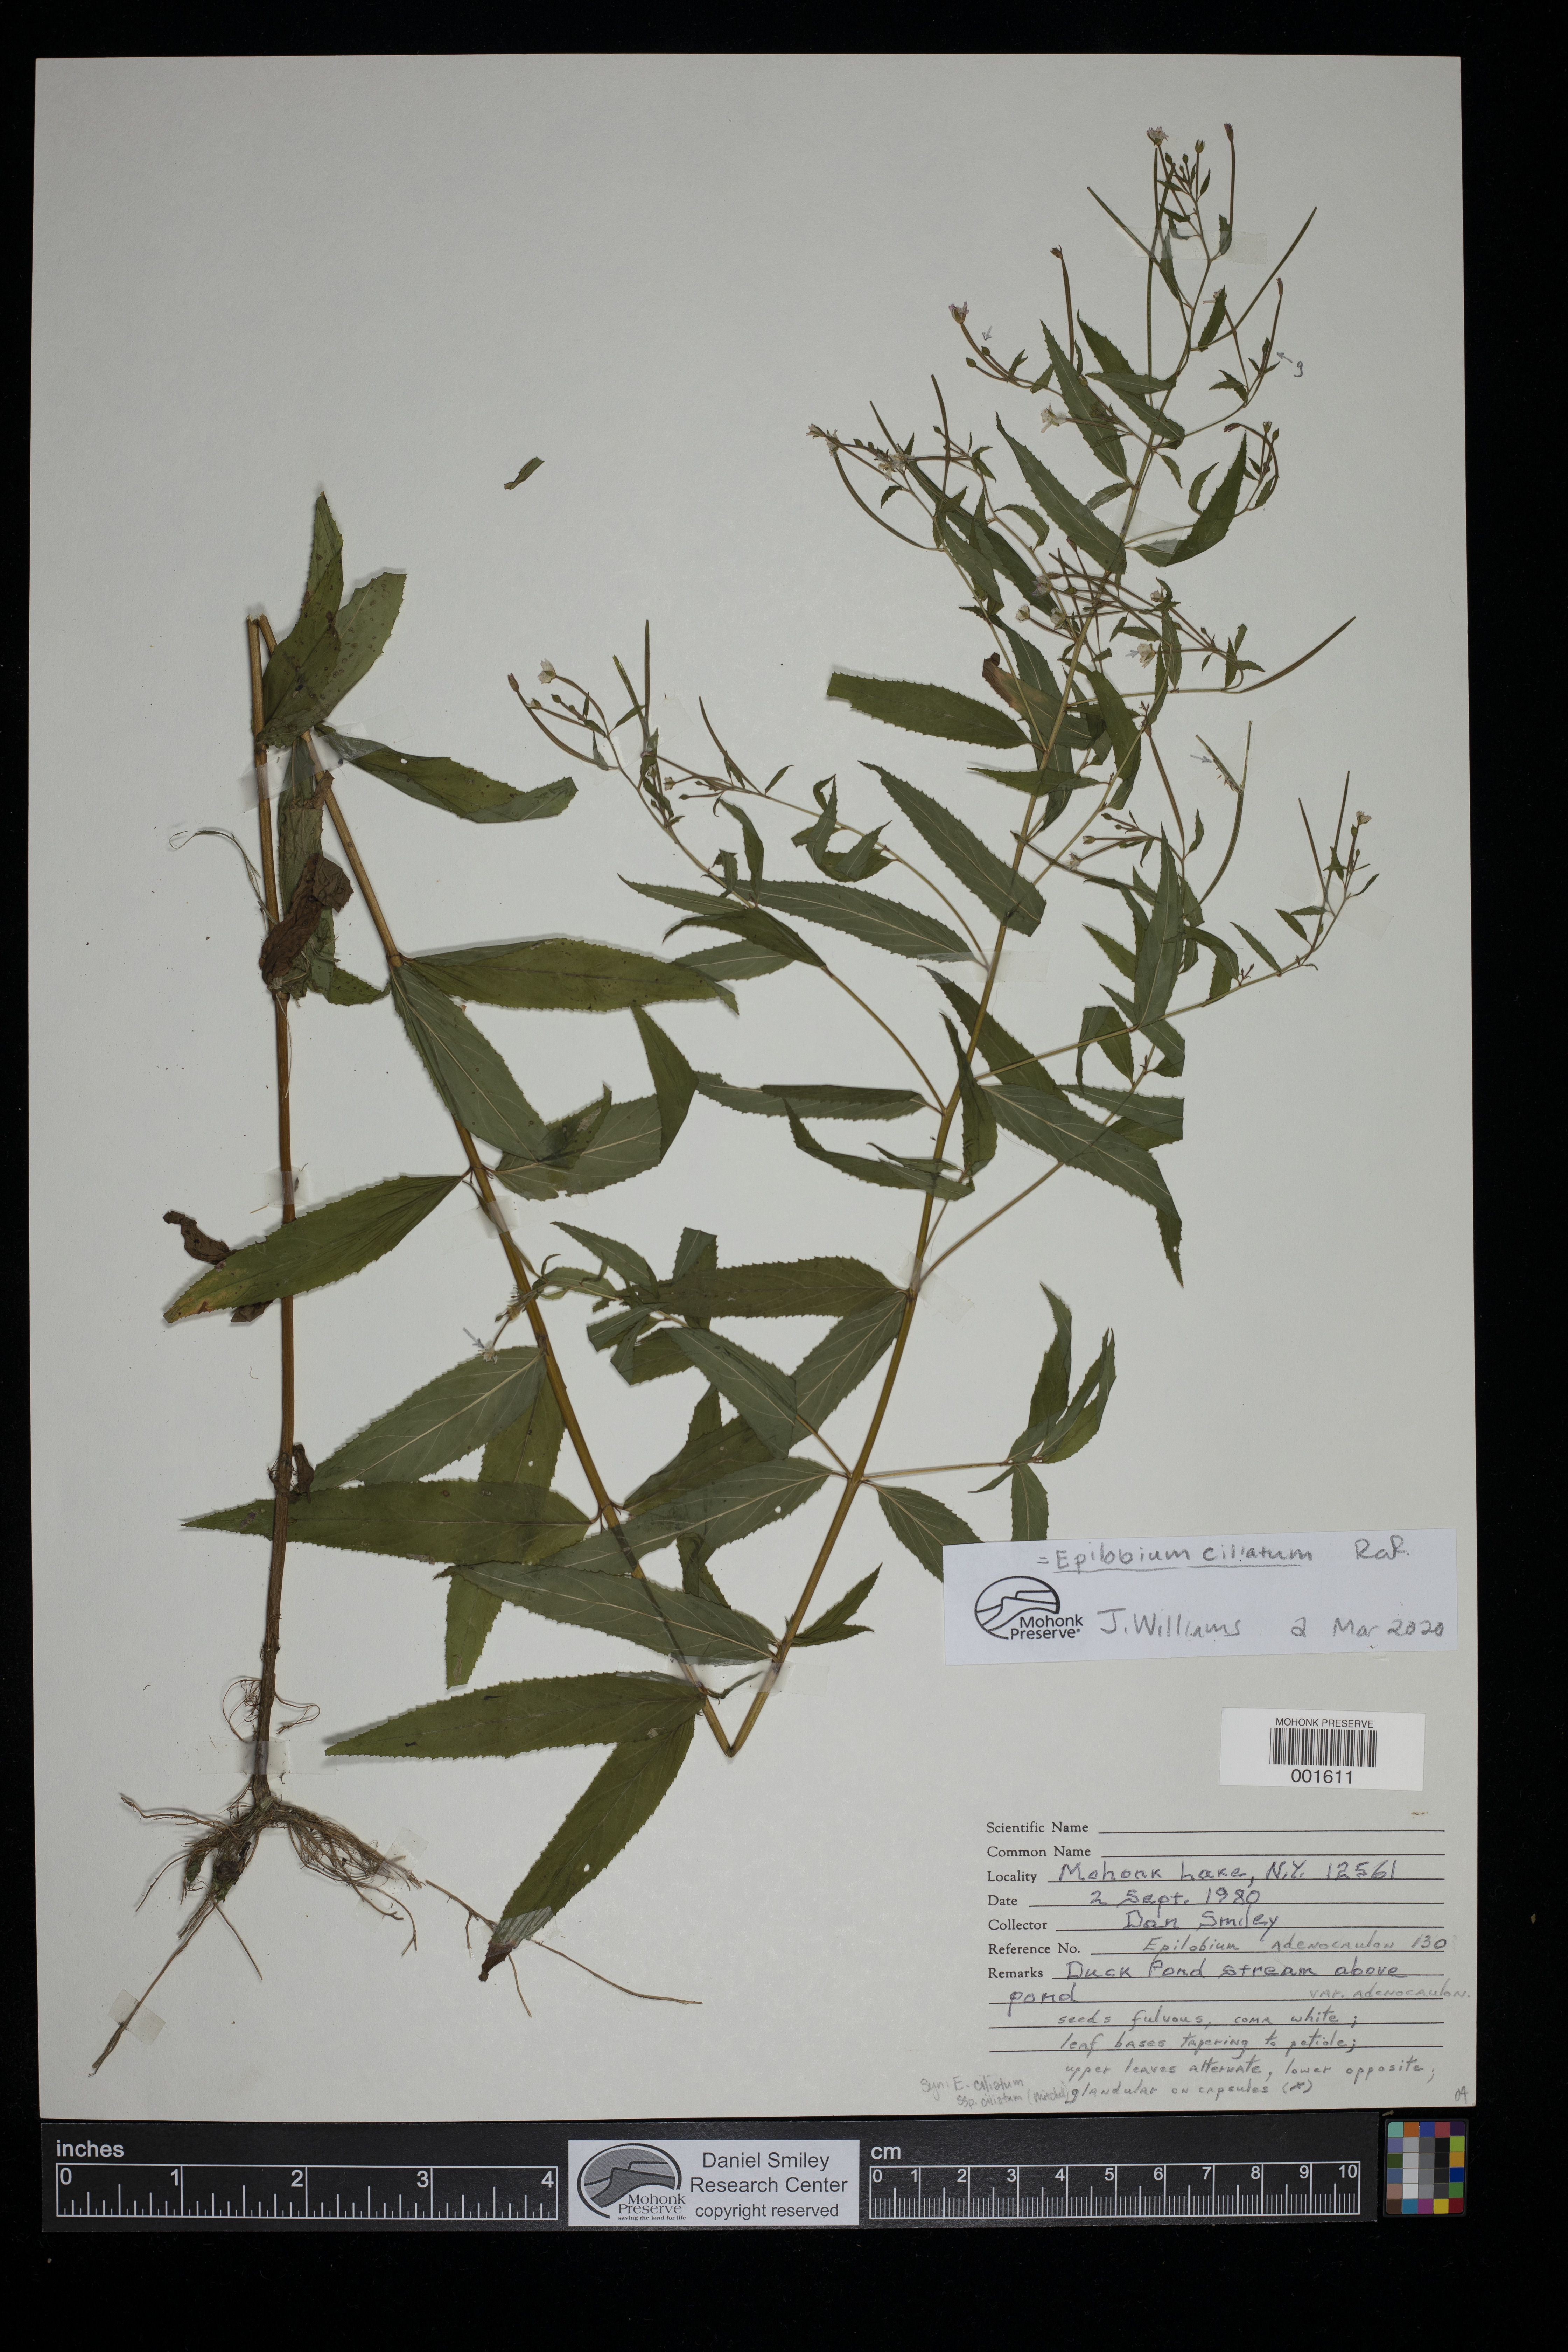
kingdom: Plantae
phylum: Tracheophyta
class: Magnoliopsida
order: Myrtales
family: Onagraceae
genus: Epilobium
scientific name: Epilobium ciliatum
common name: American willowherb
